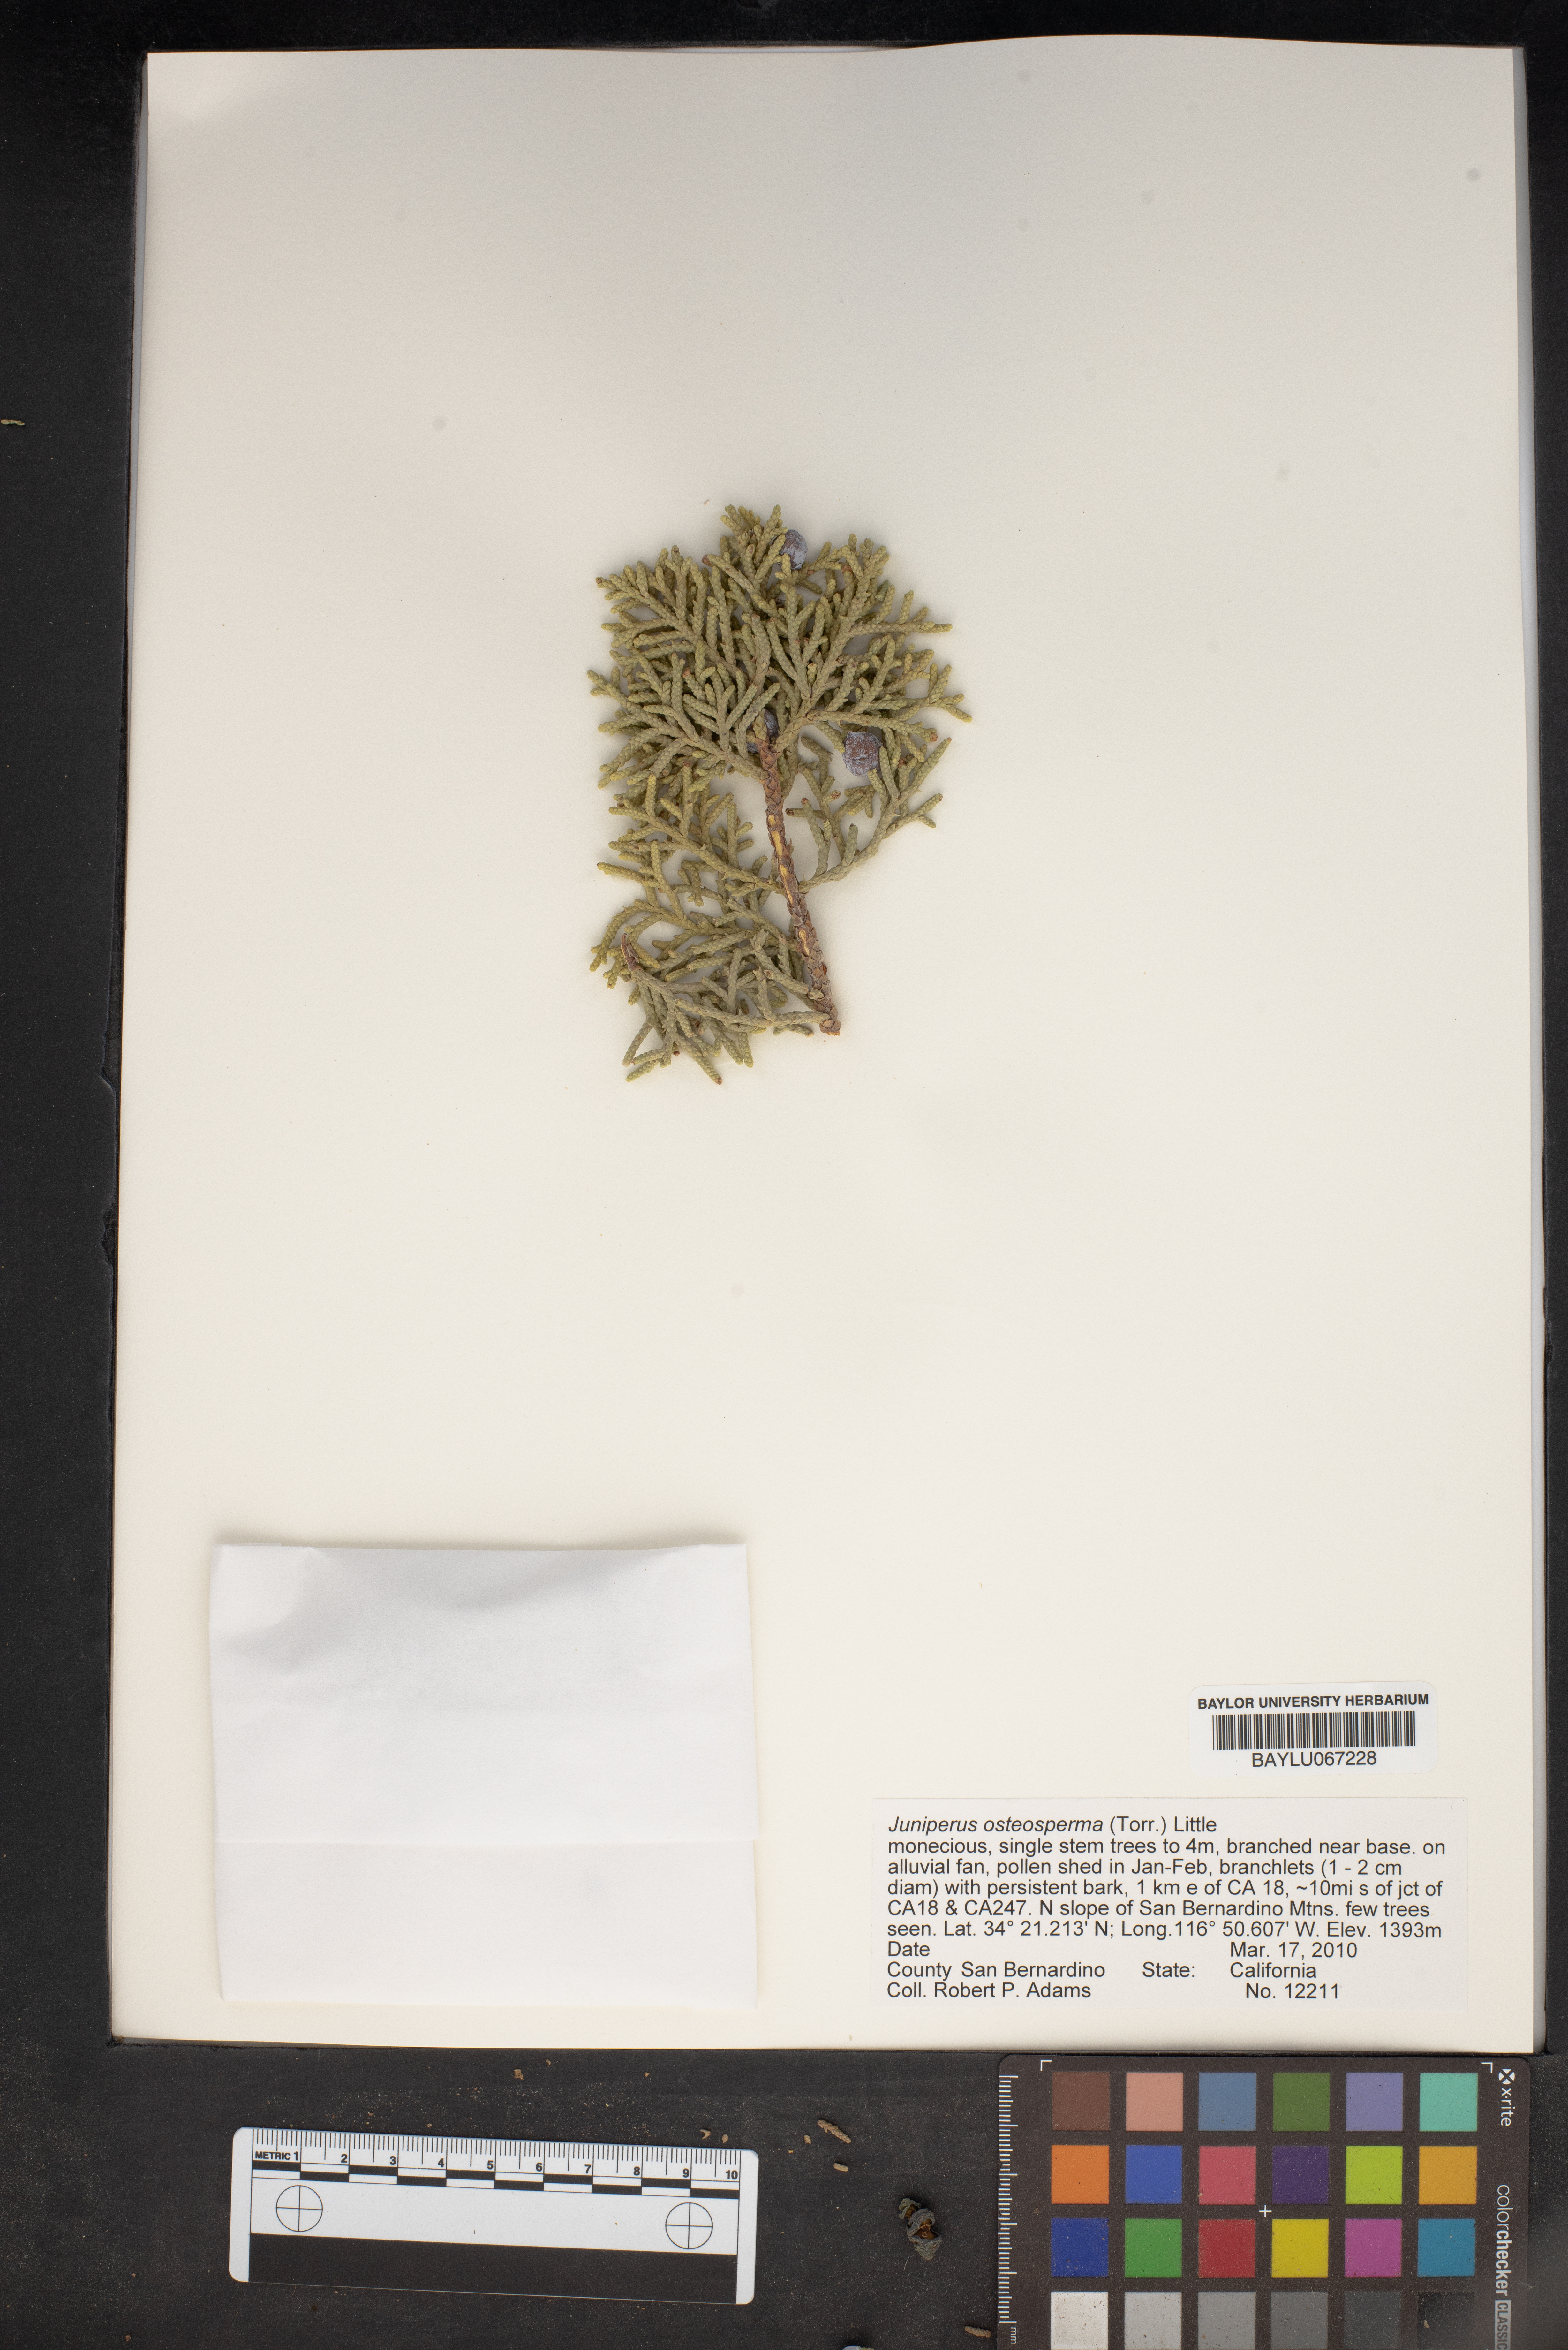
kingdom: Plantae
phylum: Tracheophyta
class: Pinopsida
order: Pinales
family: Cupressaceae
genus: Juniperus
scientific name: Juniperus osteosperma
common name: Utah juniper
